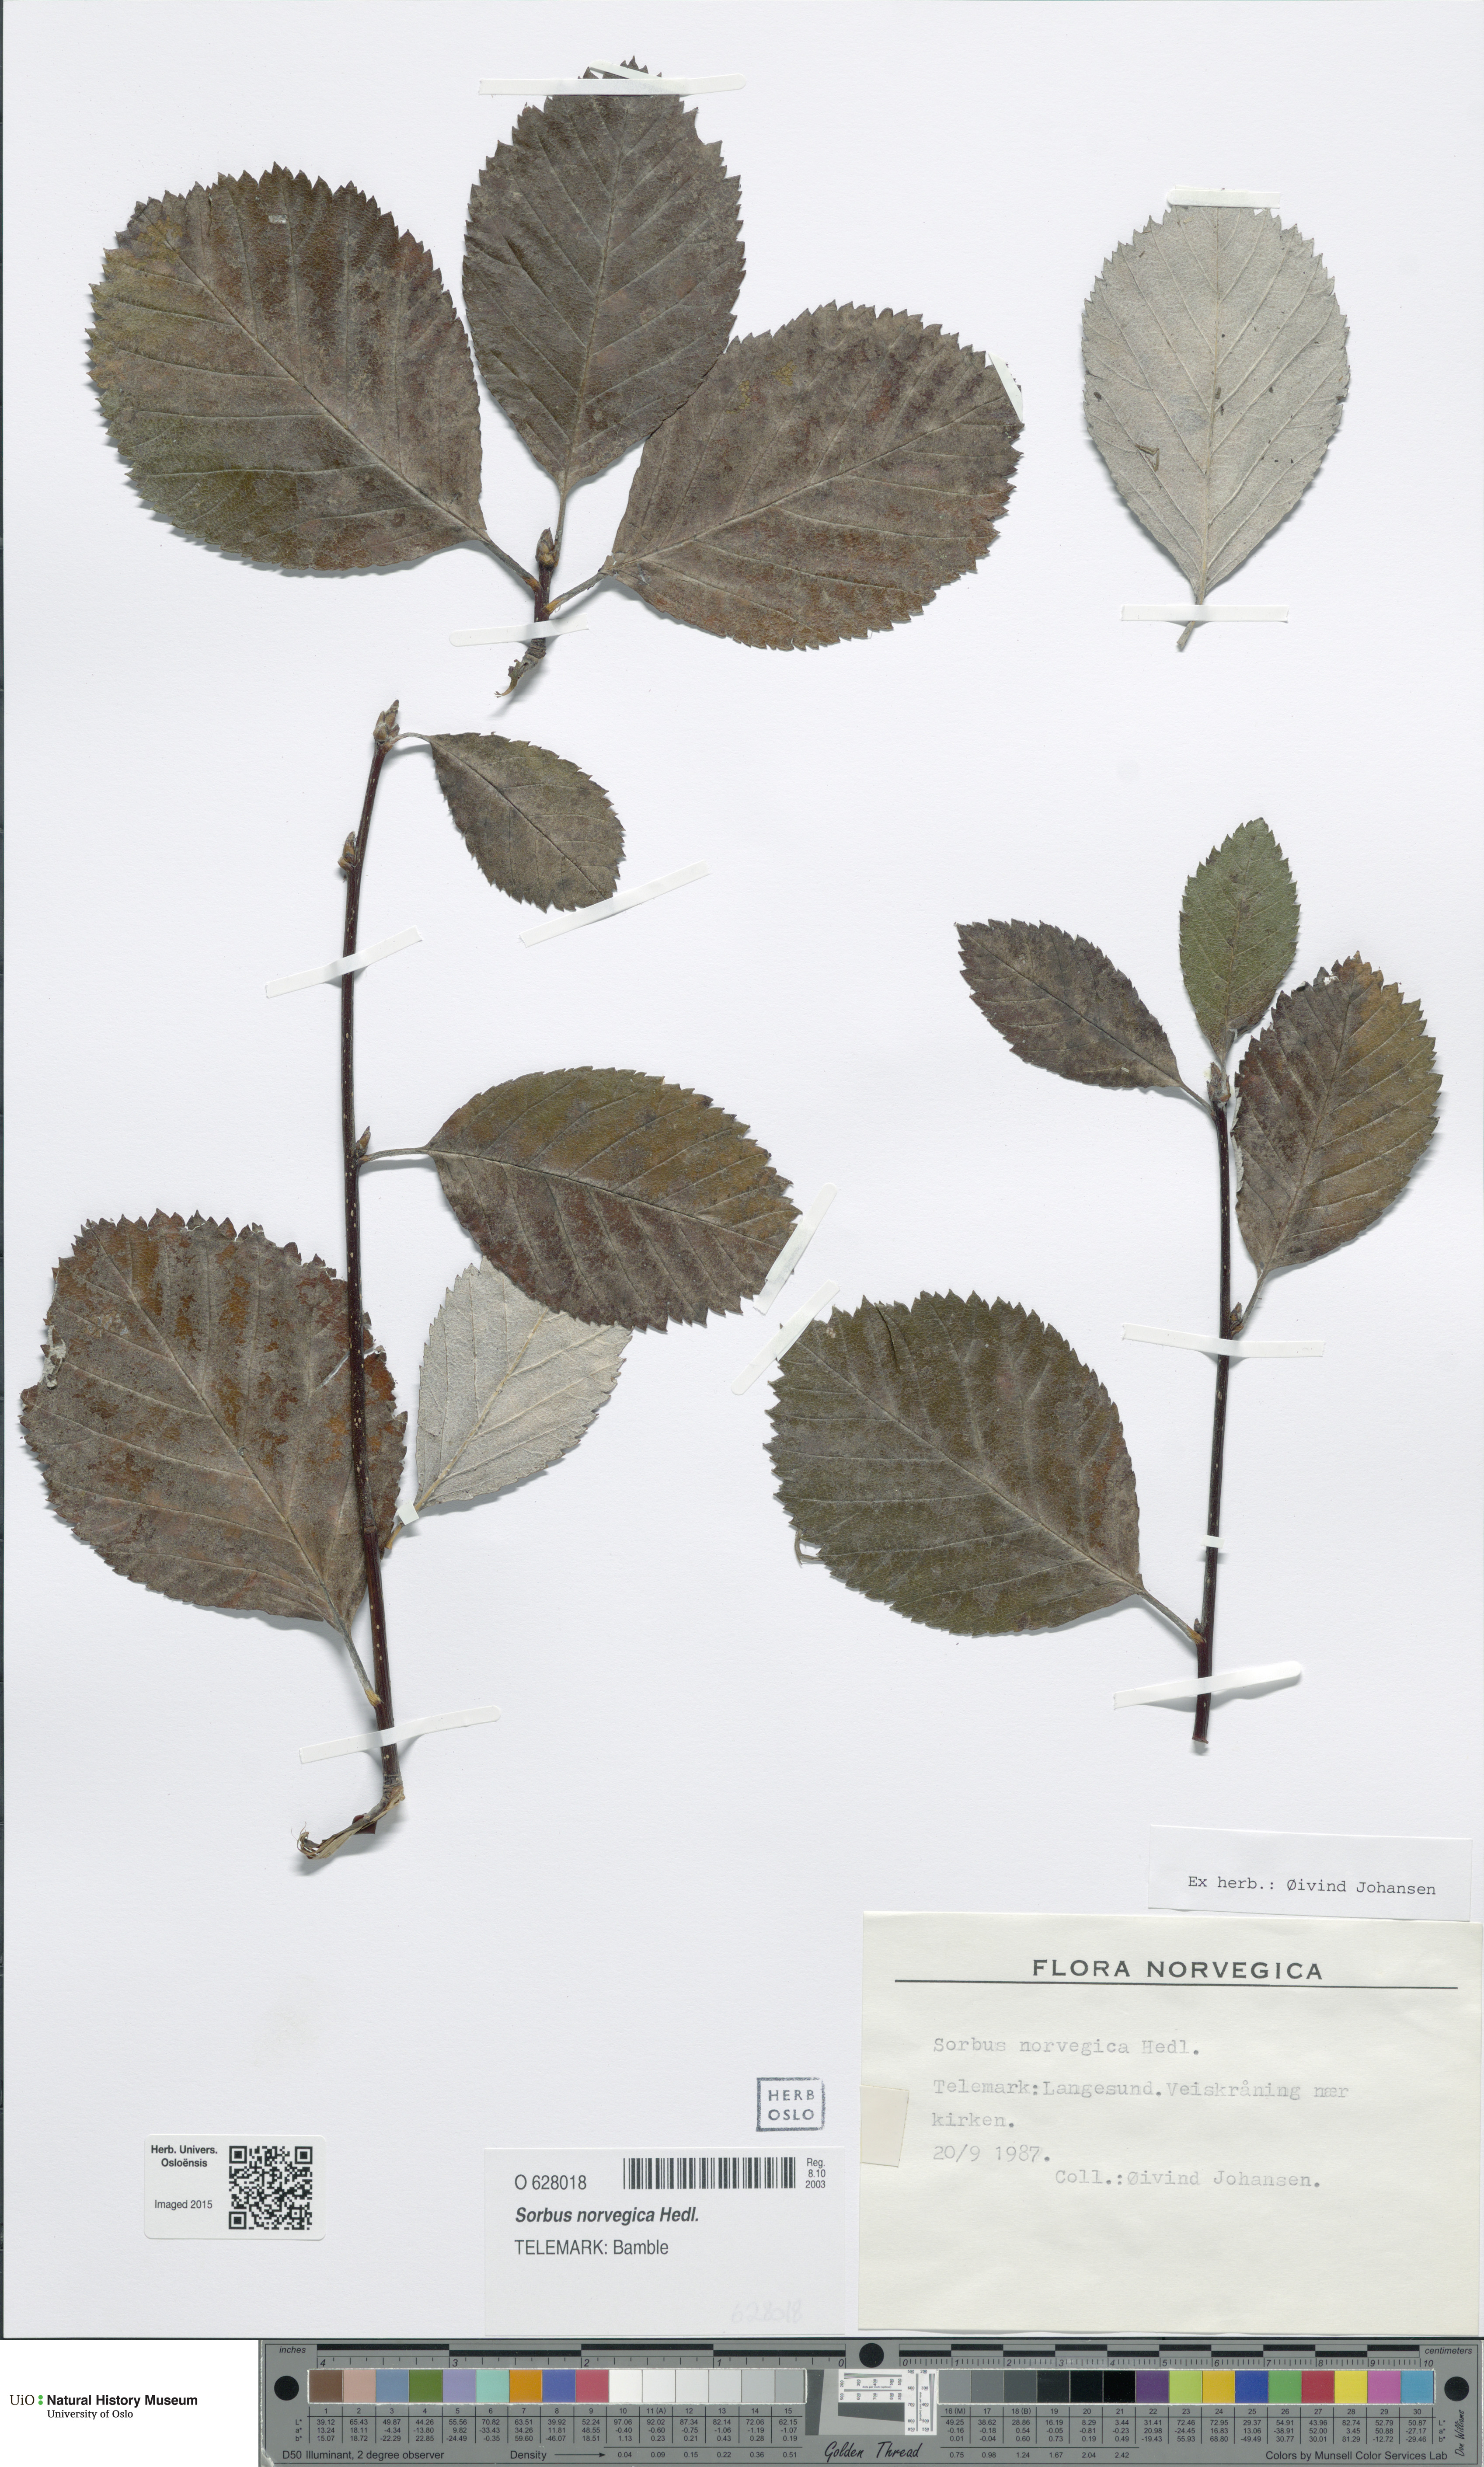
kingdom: Plantae
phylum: Tracheophyta
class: Magnoliopsida
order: Rosales
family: Rosaceae
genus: Aria
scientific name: Aria obtusifolia
